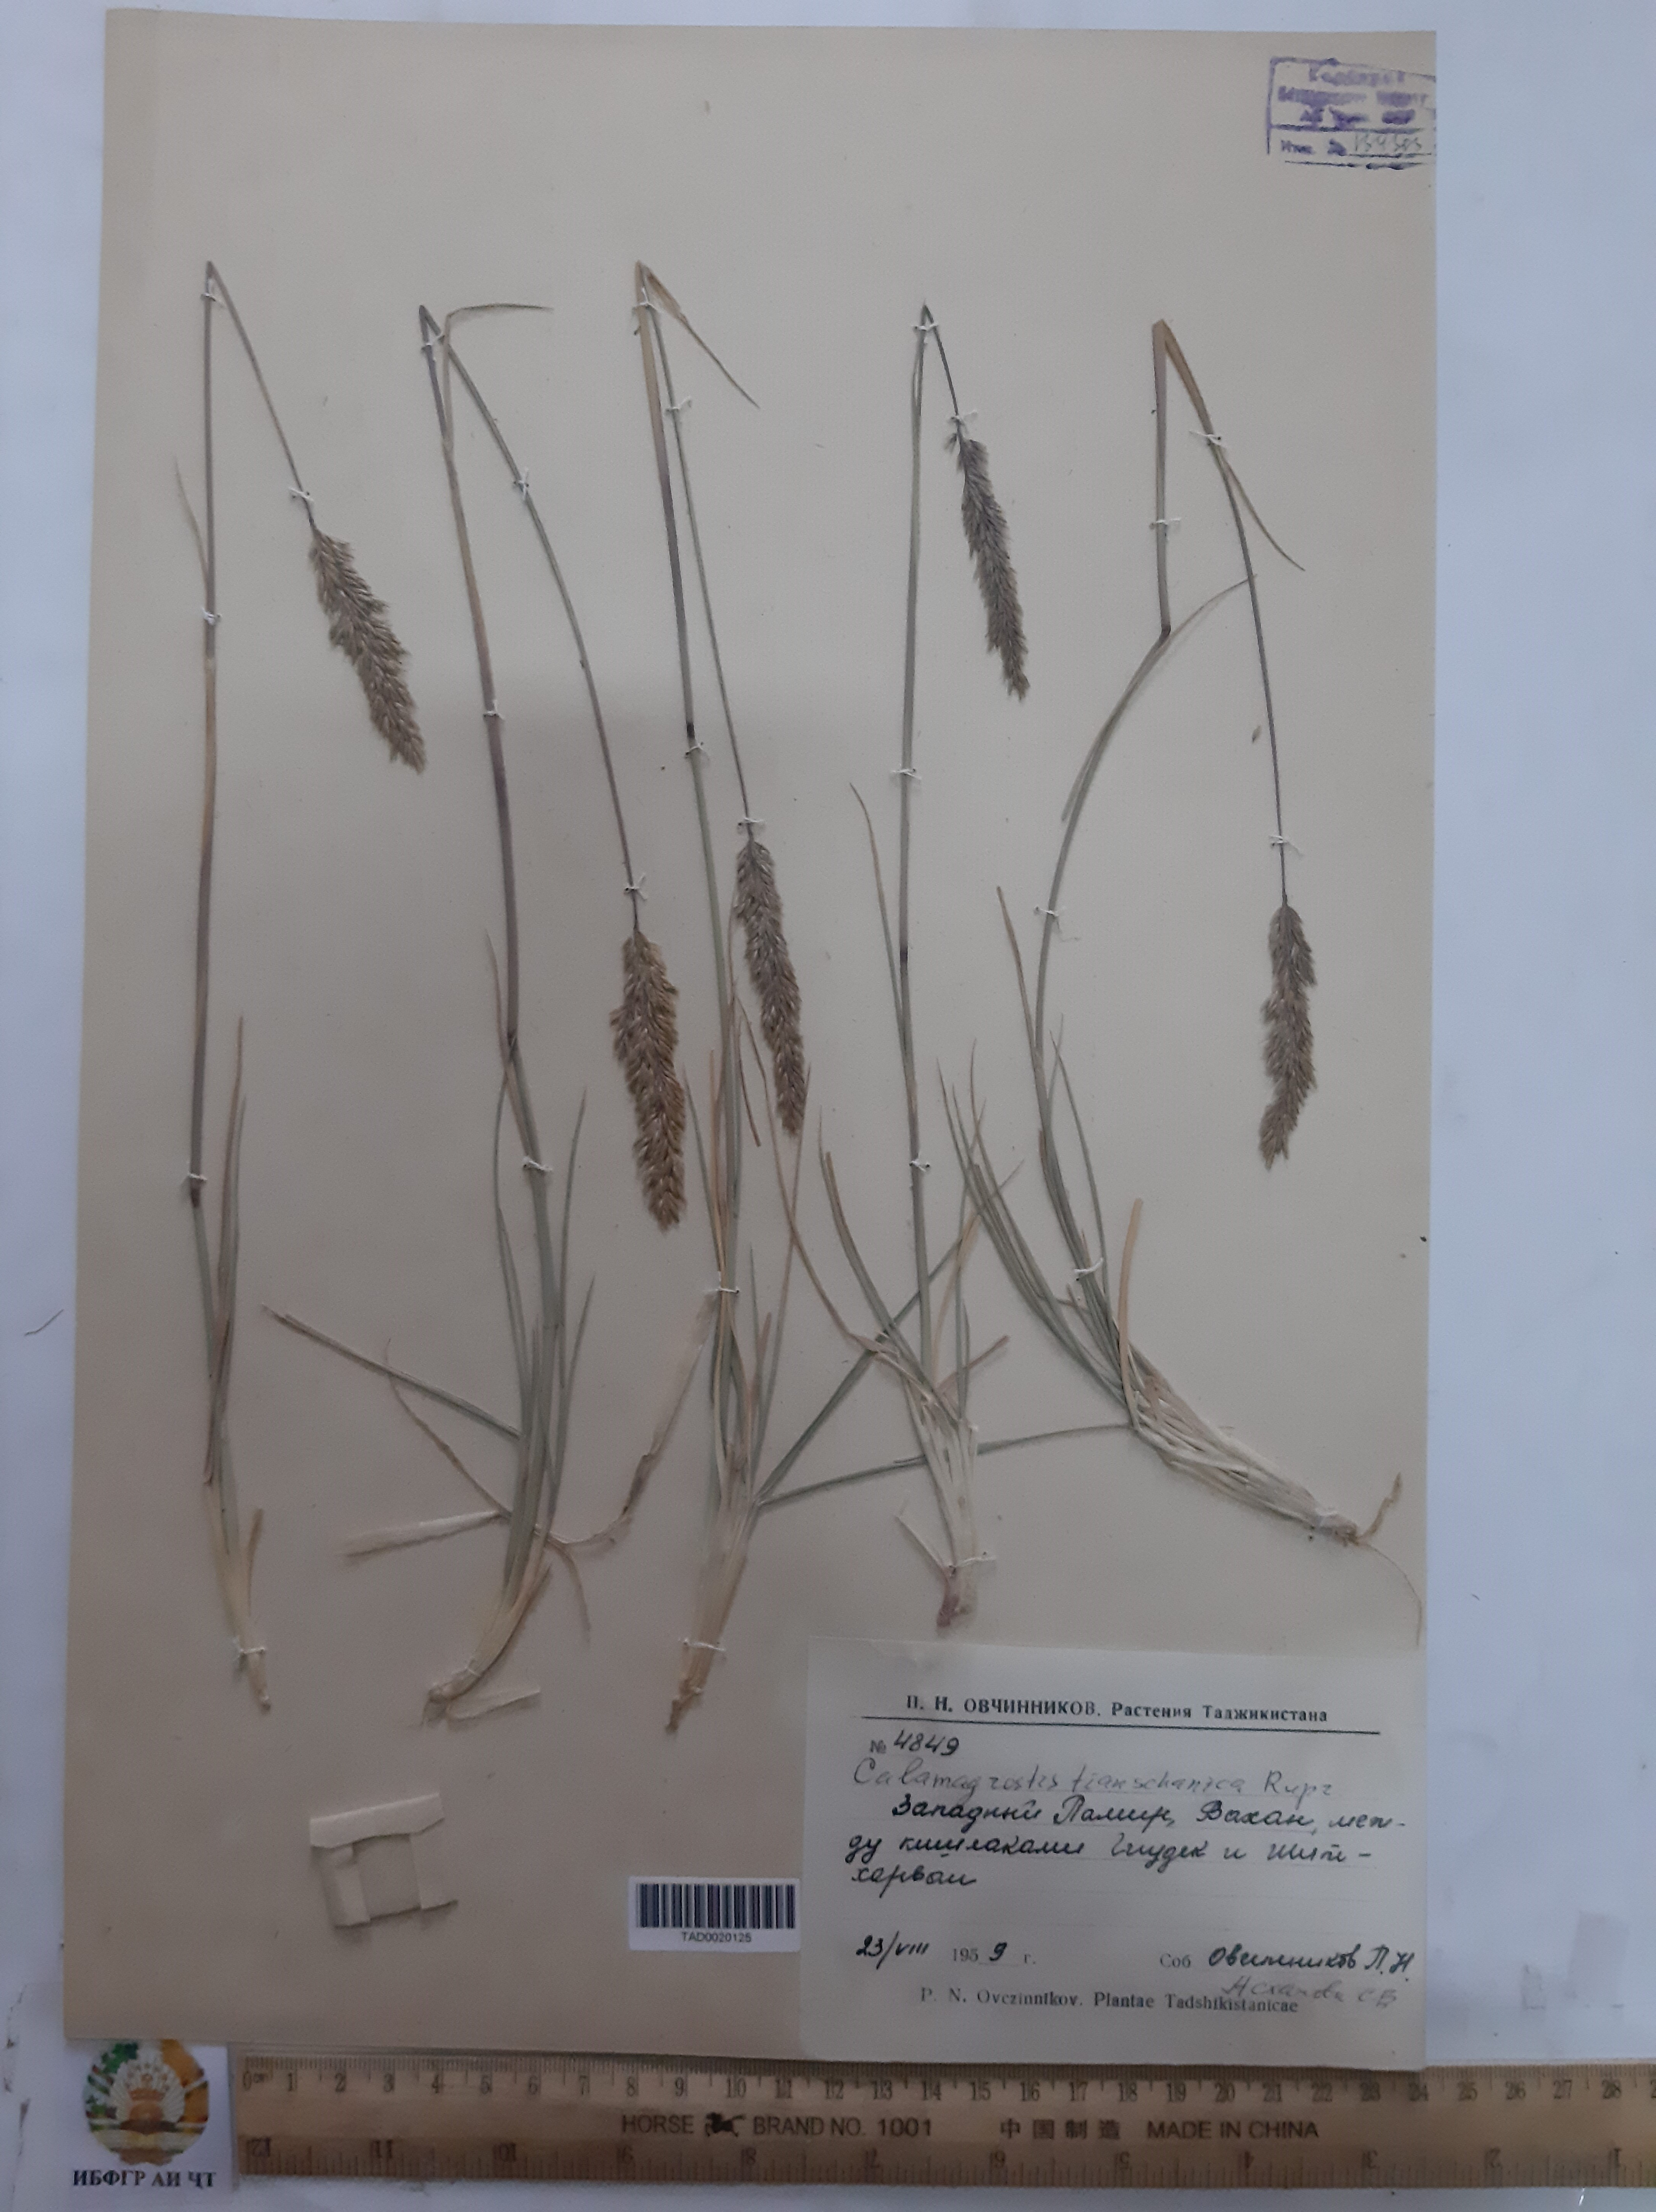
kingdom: Plantae
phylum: Tracheophyta
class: Liliopsida
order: Poales
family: Poaceae
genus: Calamagrostis
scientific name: Calamagrostis tianschanica
